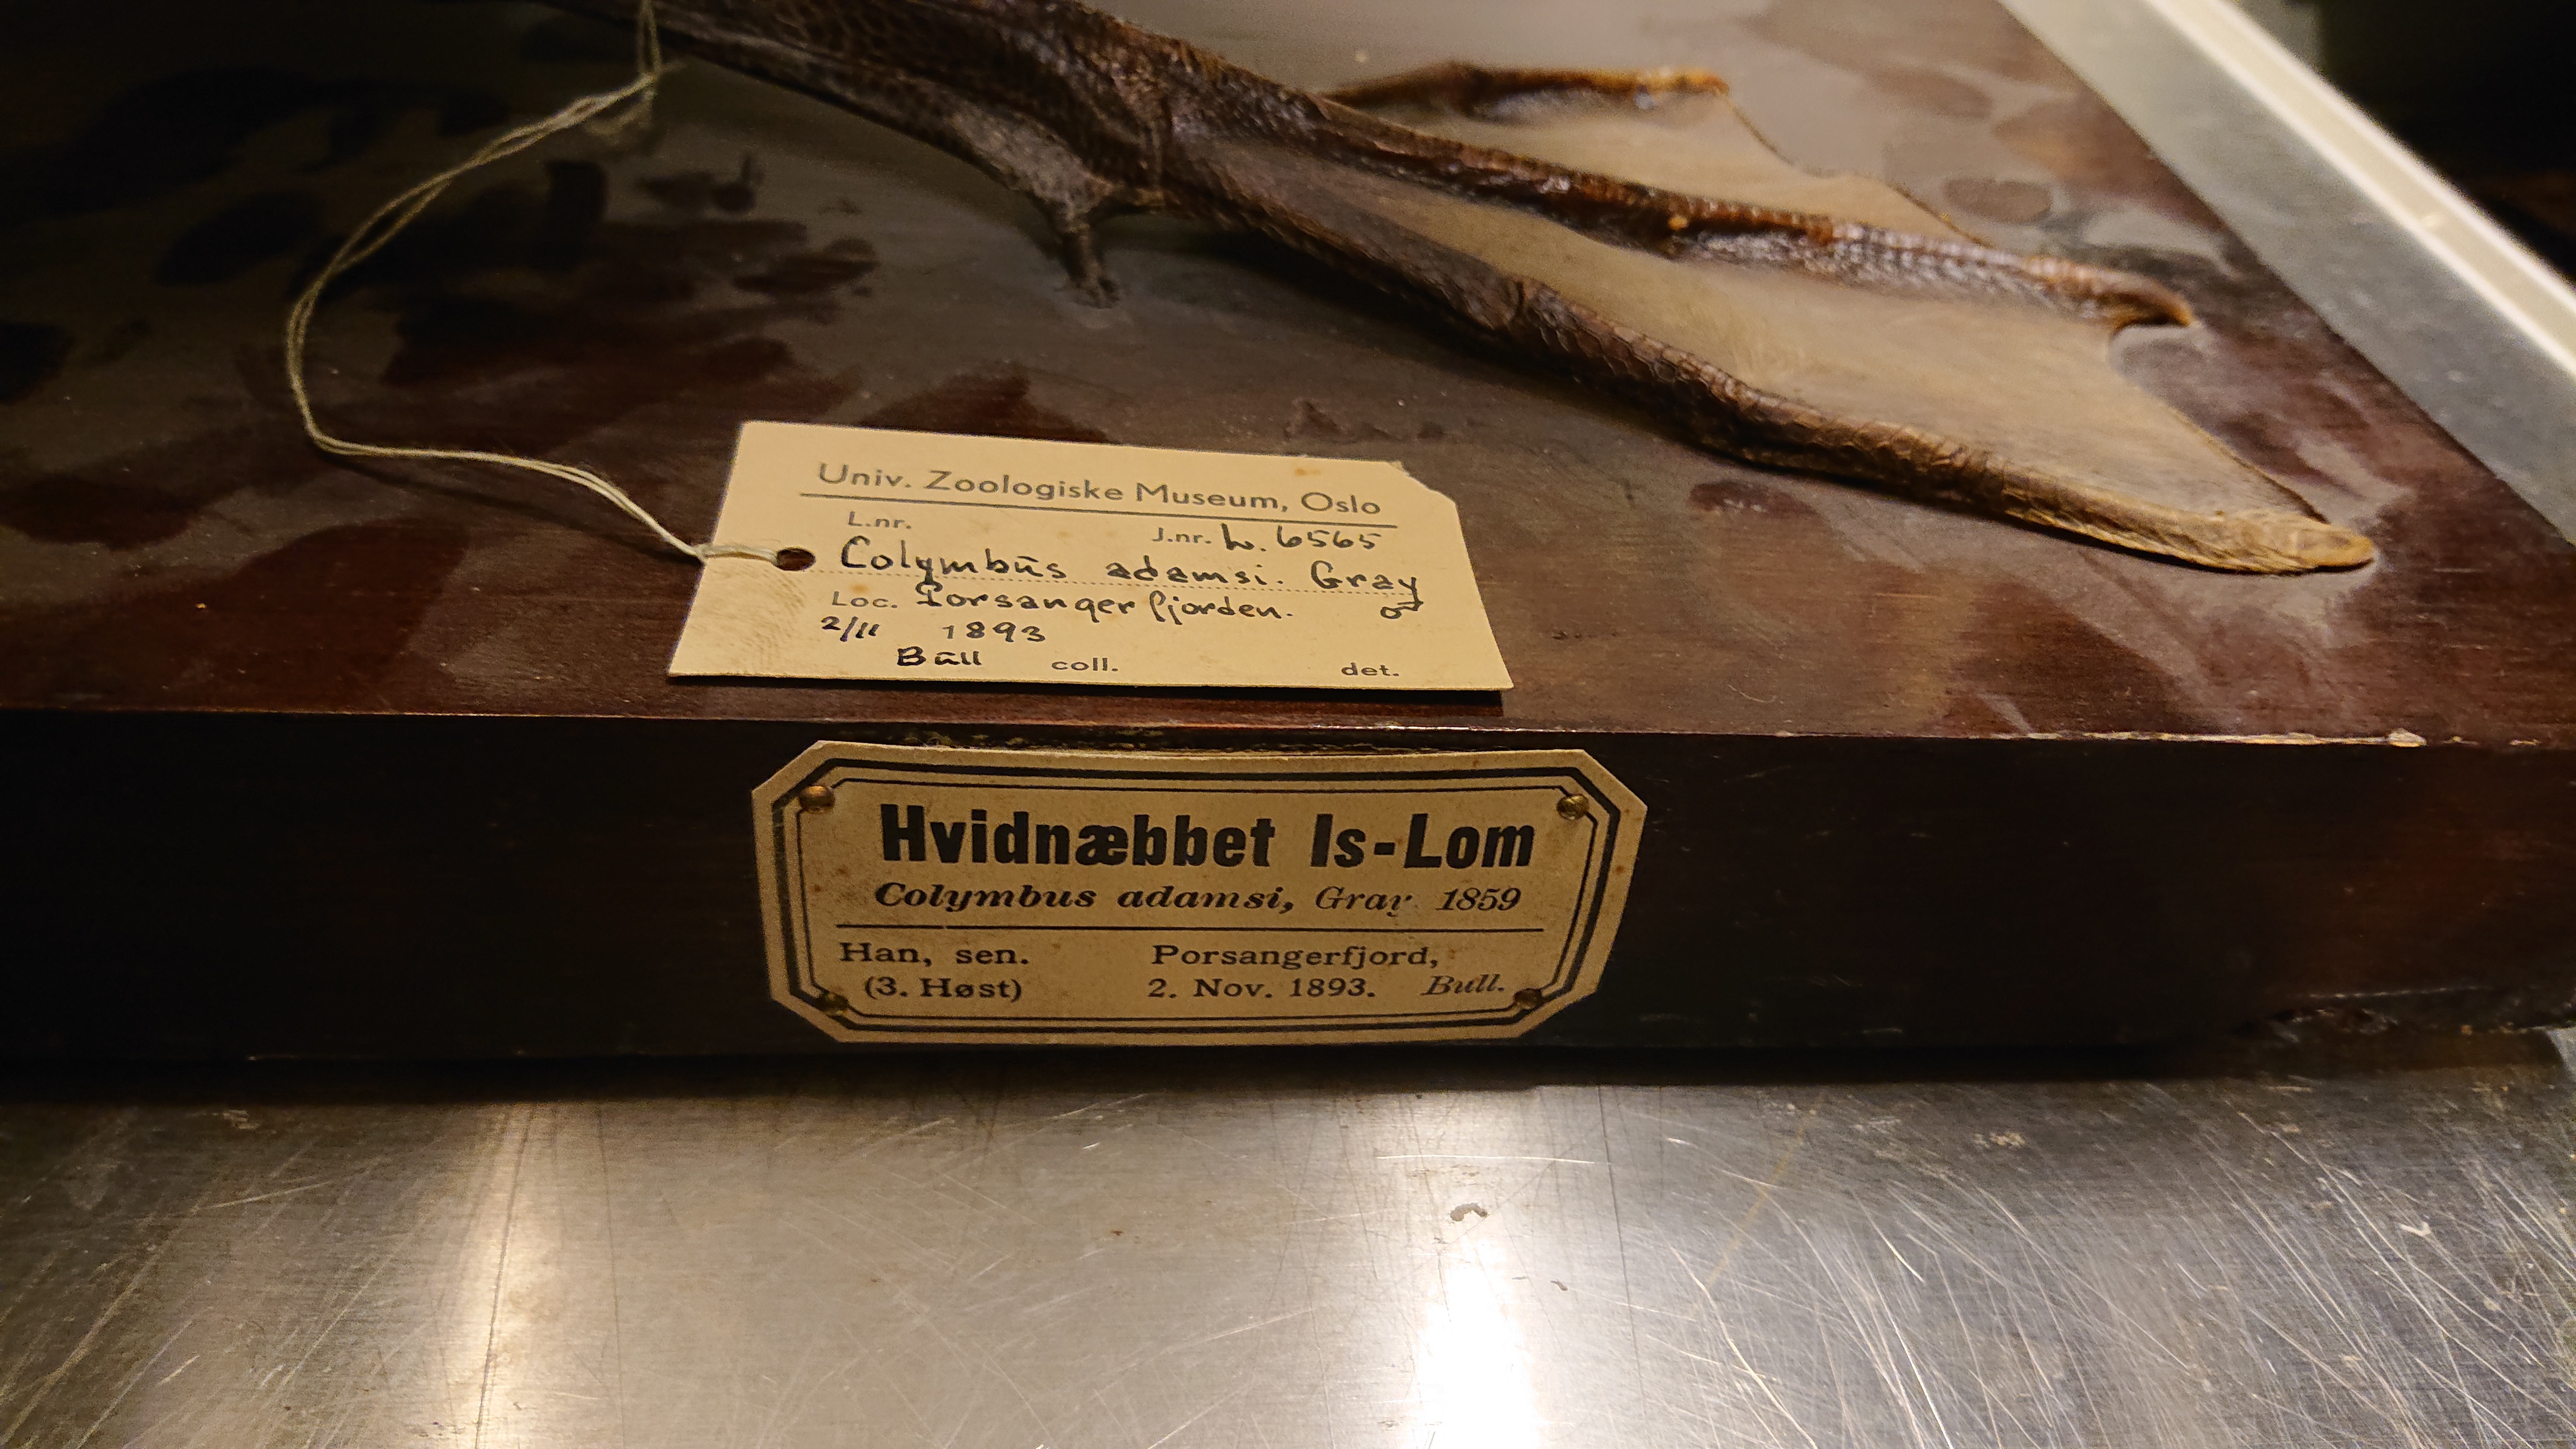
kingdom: Animalia
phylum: Chordata
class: Aves
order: Gaviiformes
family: Gaviidae
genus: Gavia
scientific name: Gavia adamsii
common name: Yellow-billed loon
